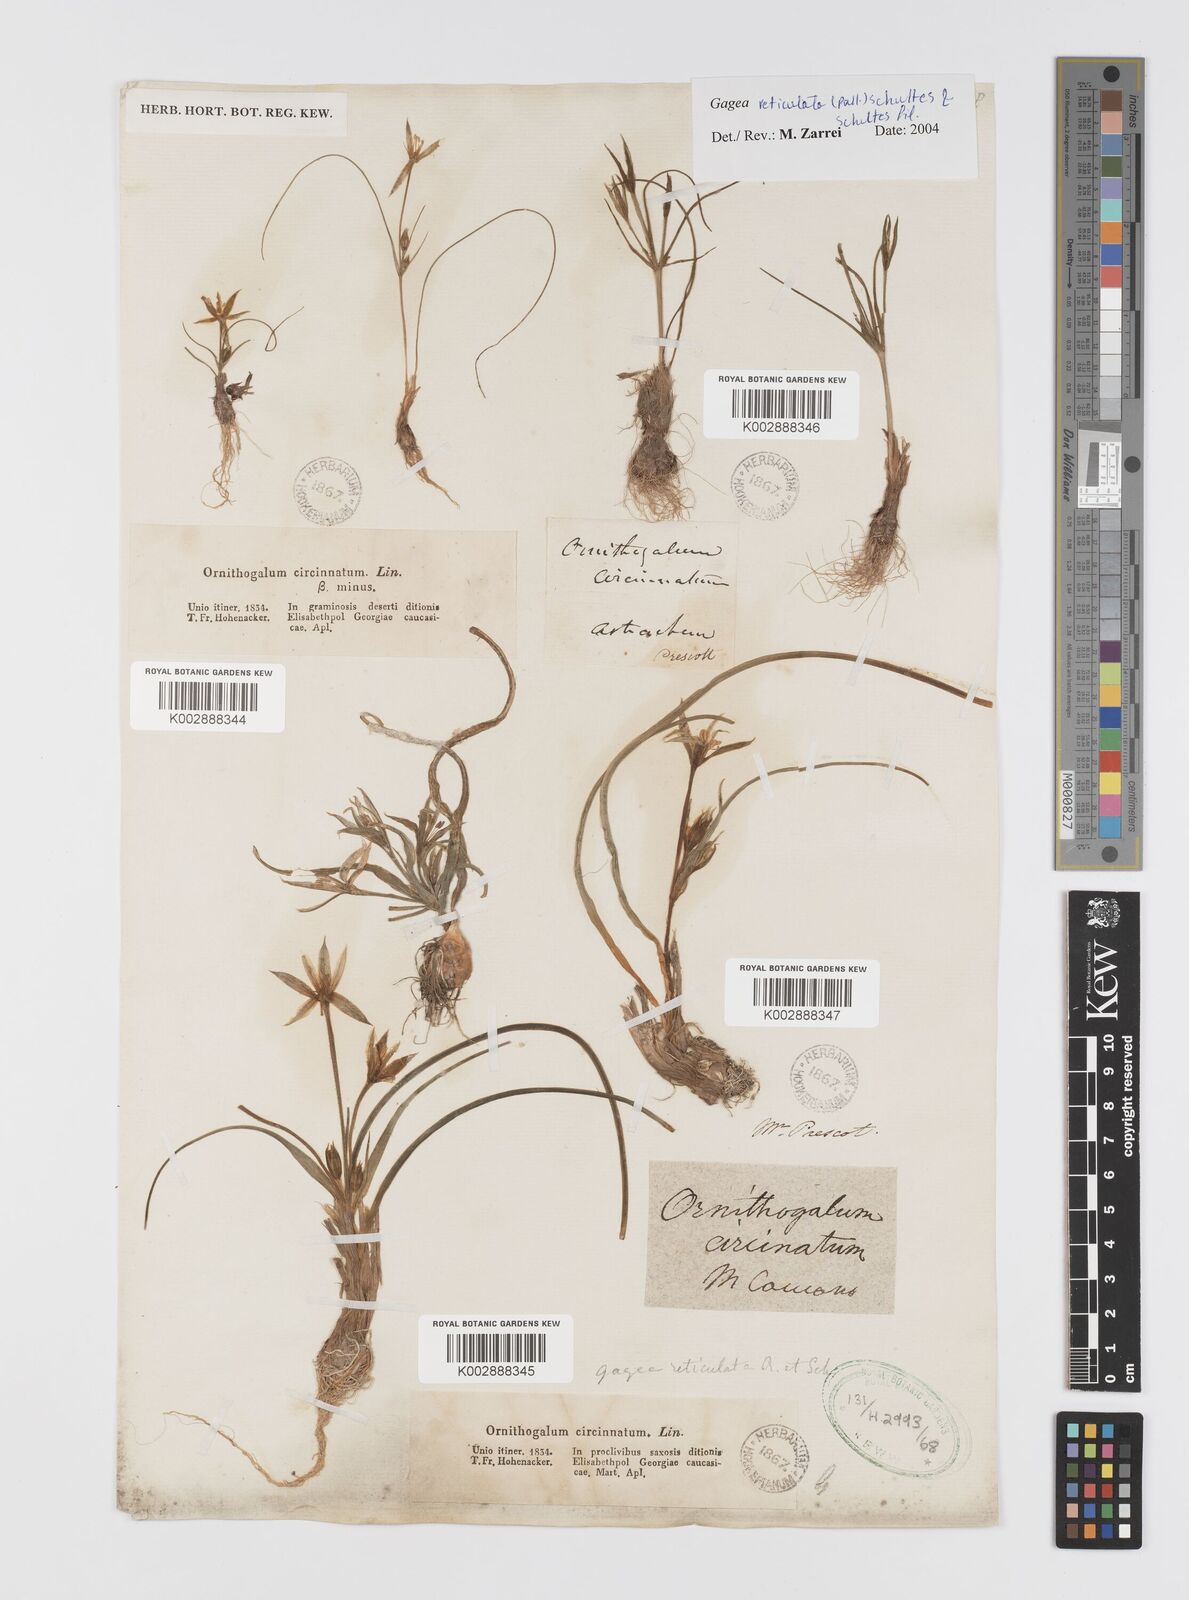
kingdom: Plantae
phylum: Tracheophyta
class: Liliopsida
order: Liliales
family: Liliaceae
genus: Gagea
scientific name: Gagea reticulata
